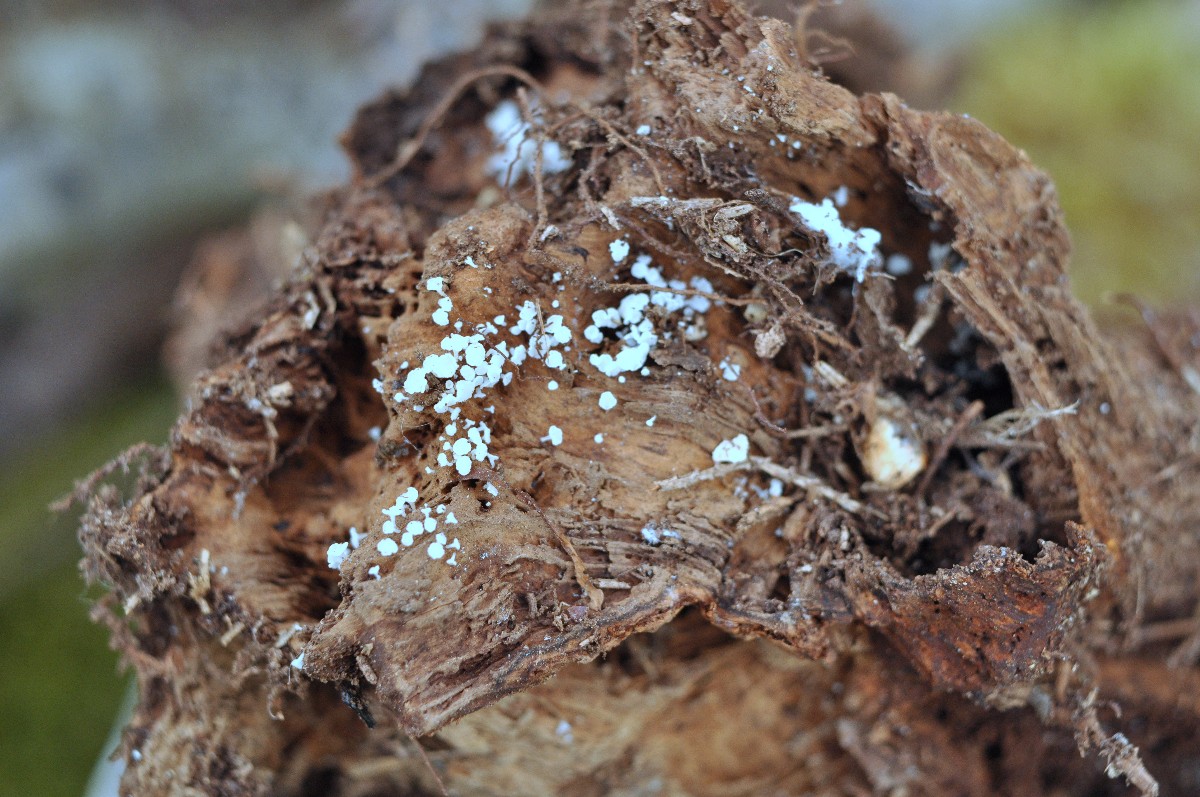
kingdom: Fungi
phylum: Ascomycota
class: Leotiomycetes
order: Helotiales
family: Lachnaceae
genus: Lachnum
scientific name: Lachnum
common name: frynseskive
